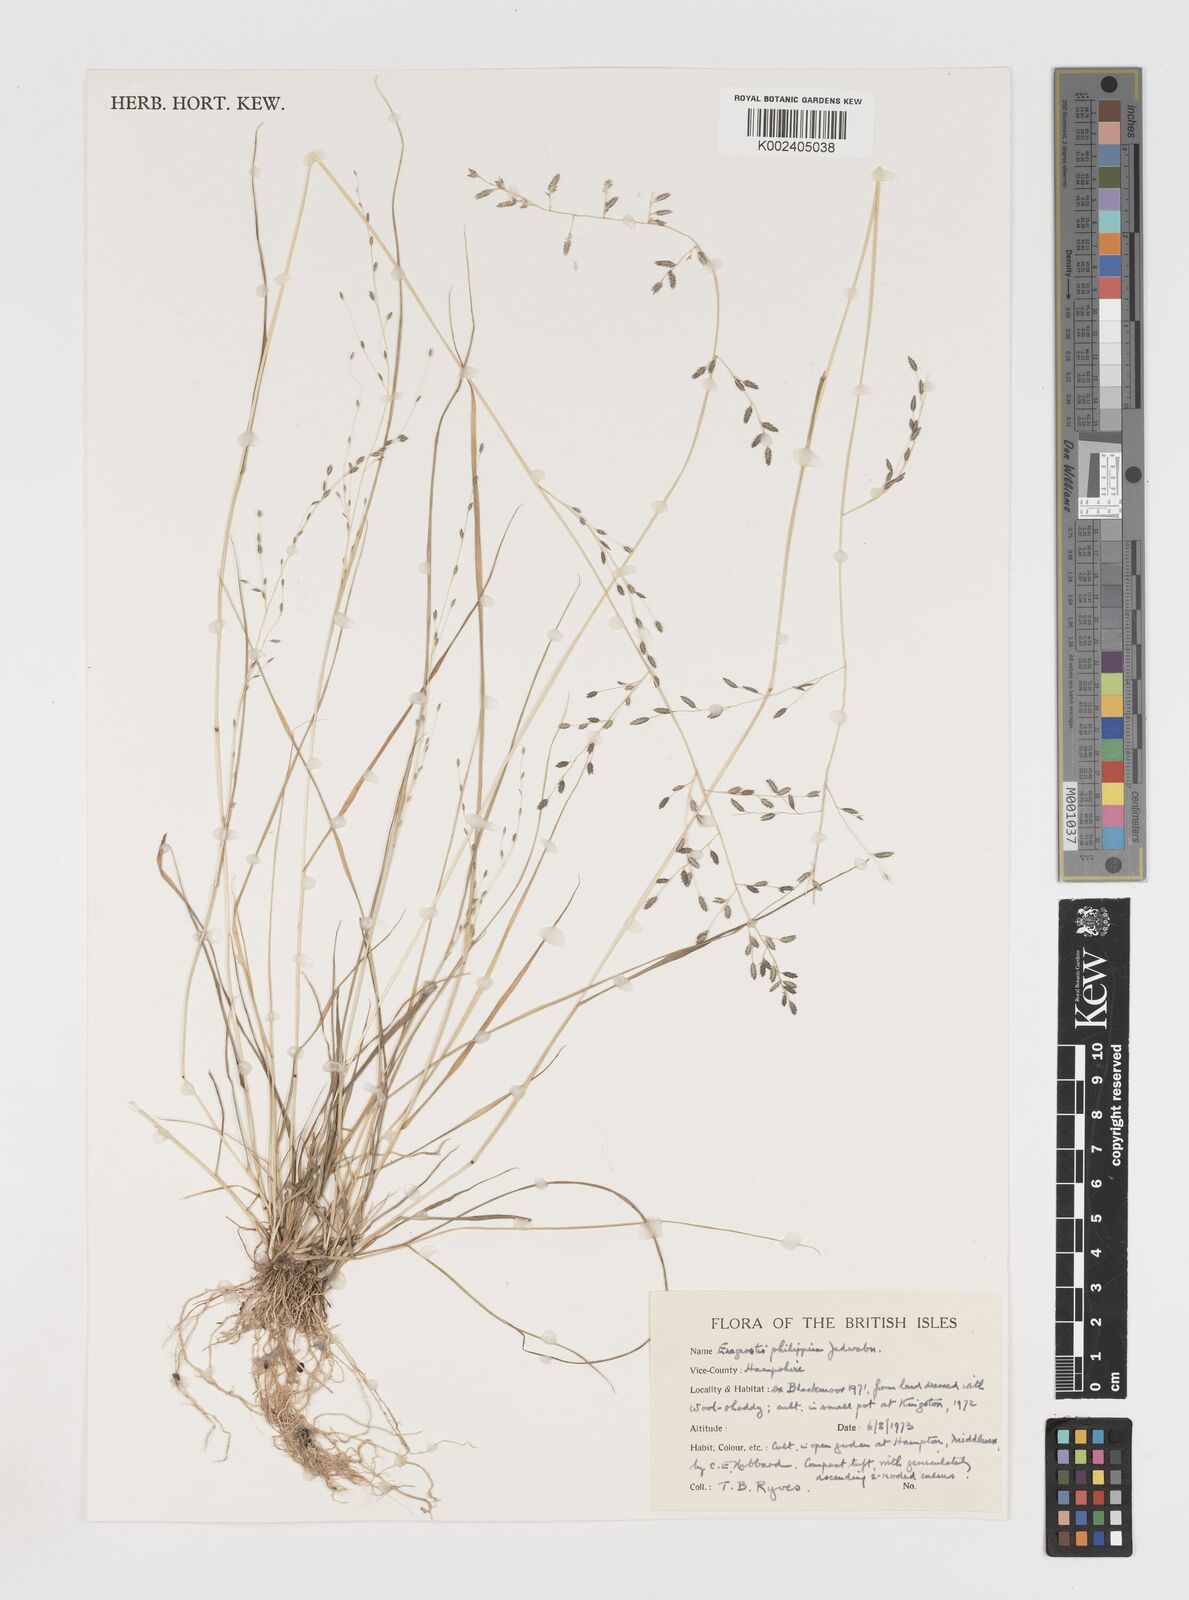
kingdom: Plantae
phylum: Tracheophyta
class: Liliopsida
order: Poales
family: Poaceae
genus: Eragrostis
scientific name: Eragrostis brownii
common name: Lovegrass
